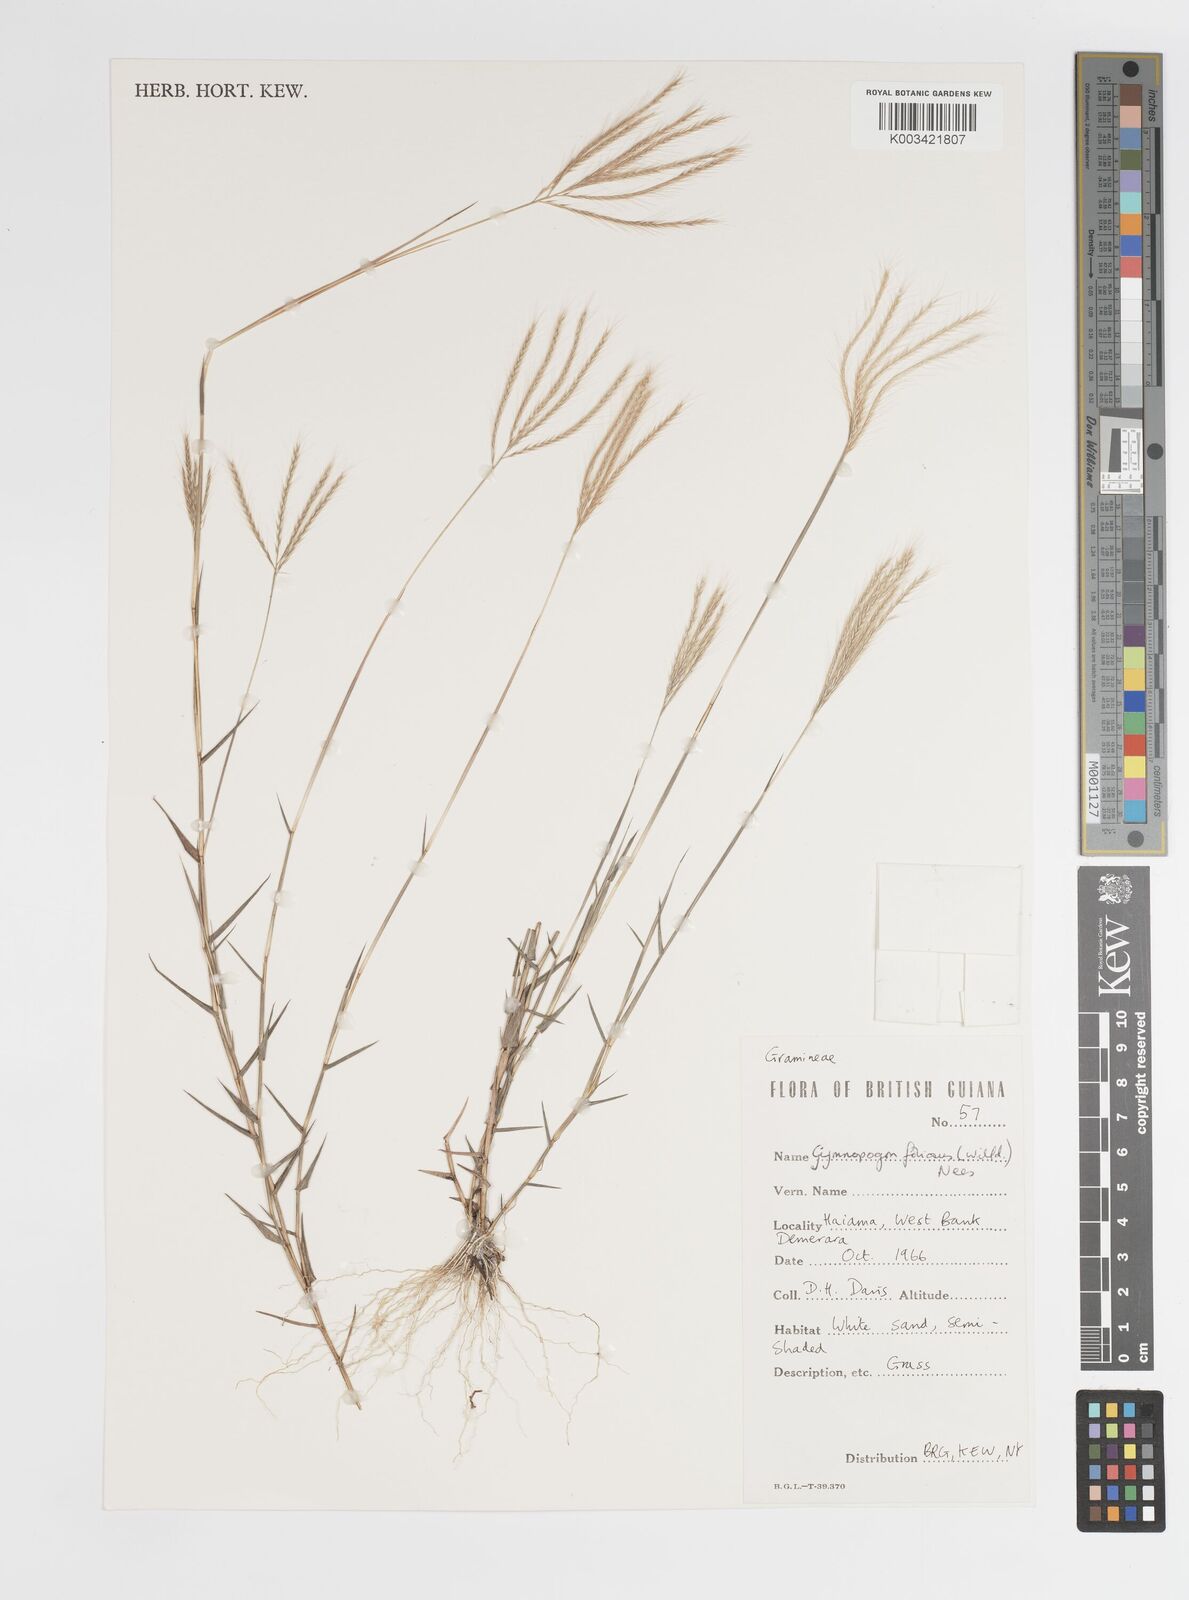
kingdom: Plantae
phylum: Tracheophyta
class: Liliopsida
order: Poales
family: Poaceae
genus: Gymnopogon
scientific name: Gymnopogon foliosus
